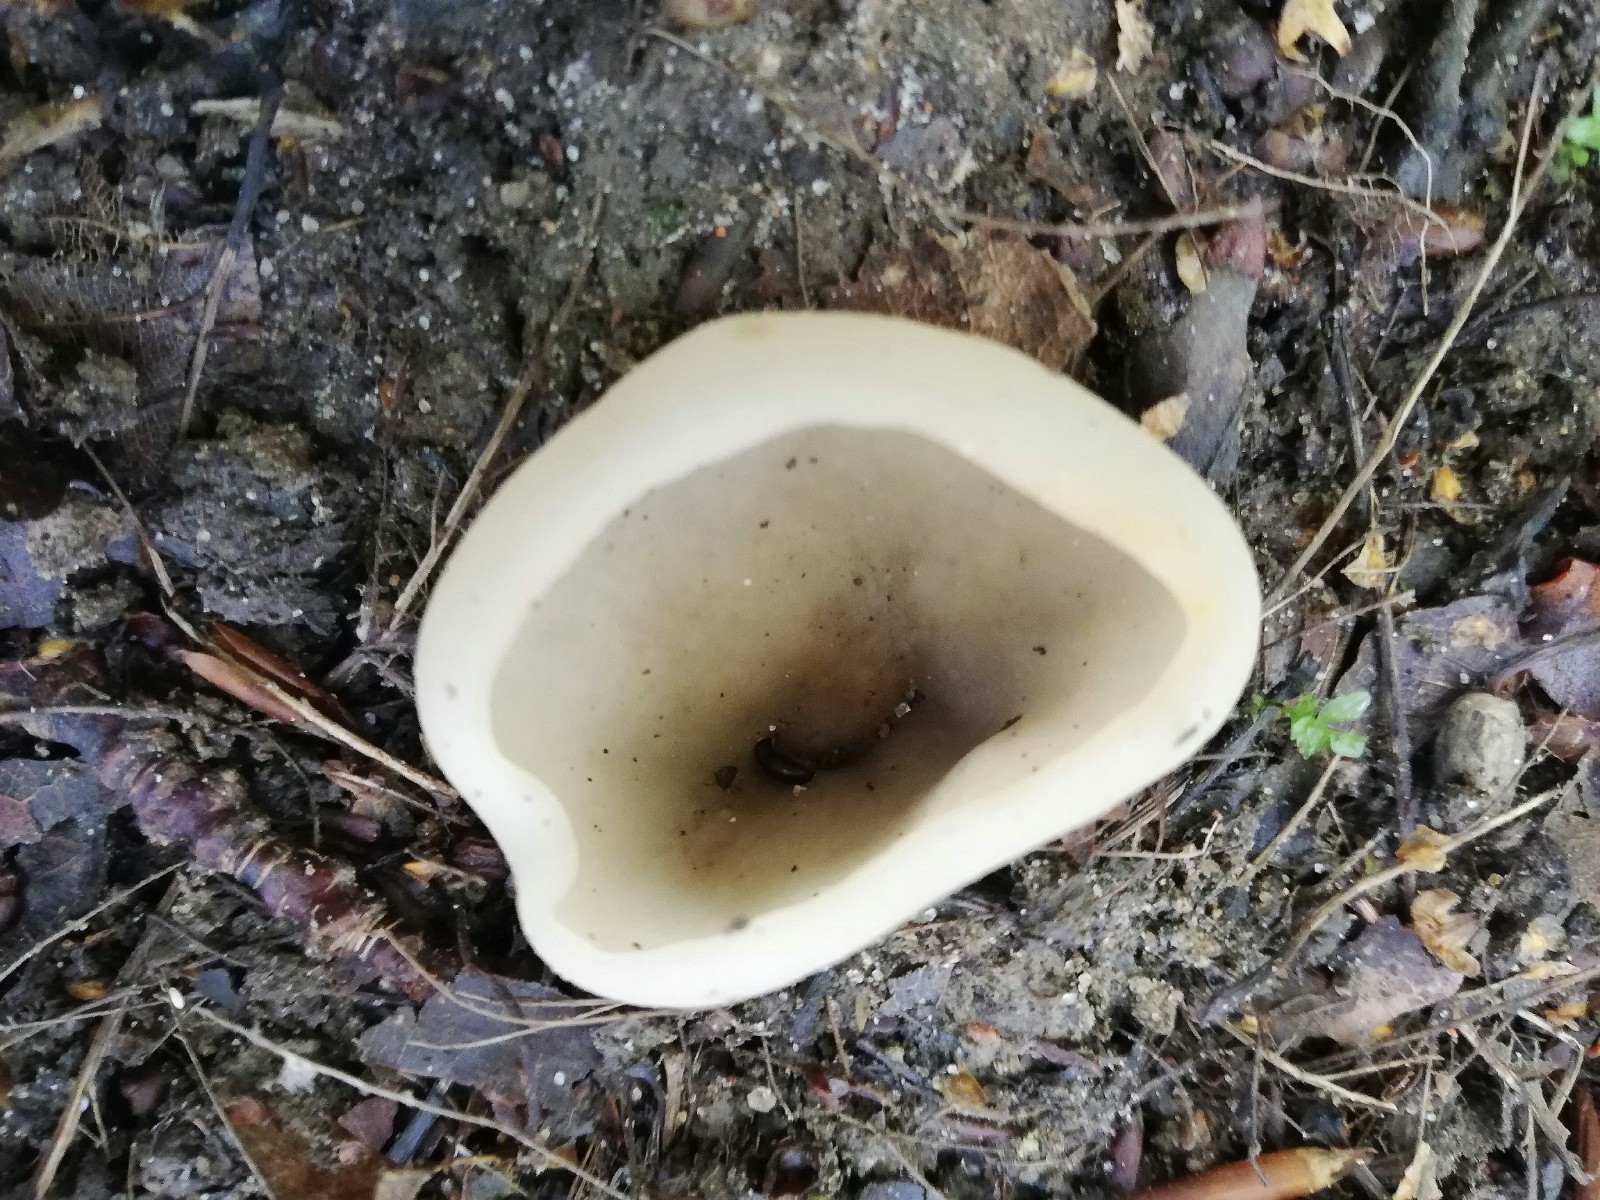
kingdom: Fungi
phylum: Ascomycota
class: Pezizomycetes
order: Pezizales
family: Pezizaceae
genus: Paragalactinia
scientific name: Paragalactinia succosa
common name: gulmælket bægersvamp
